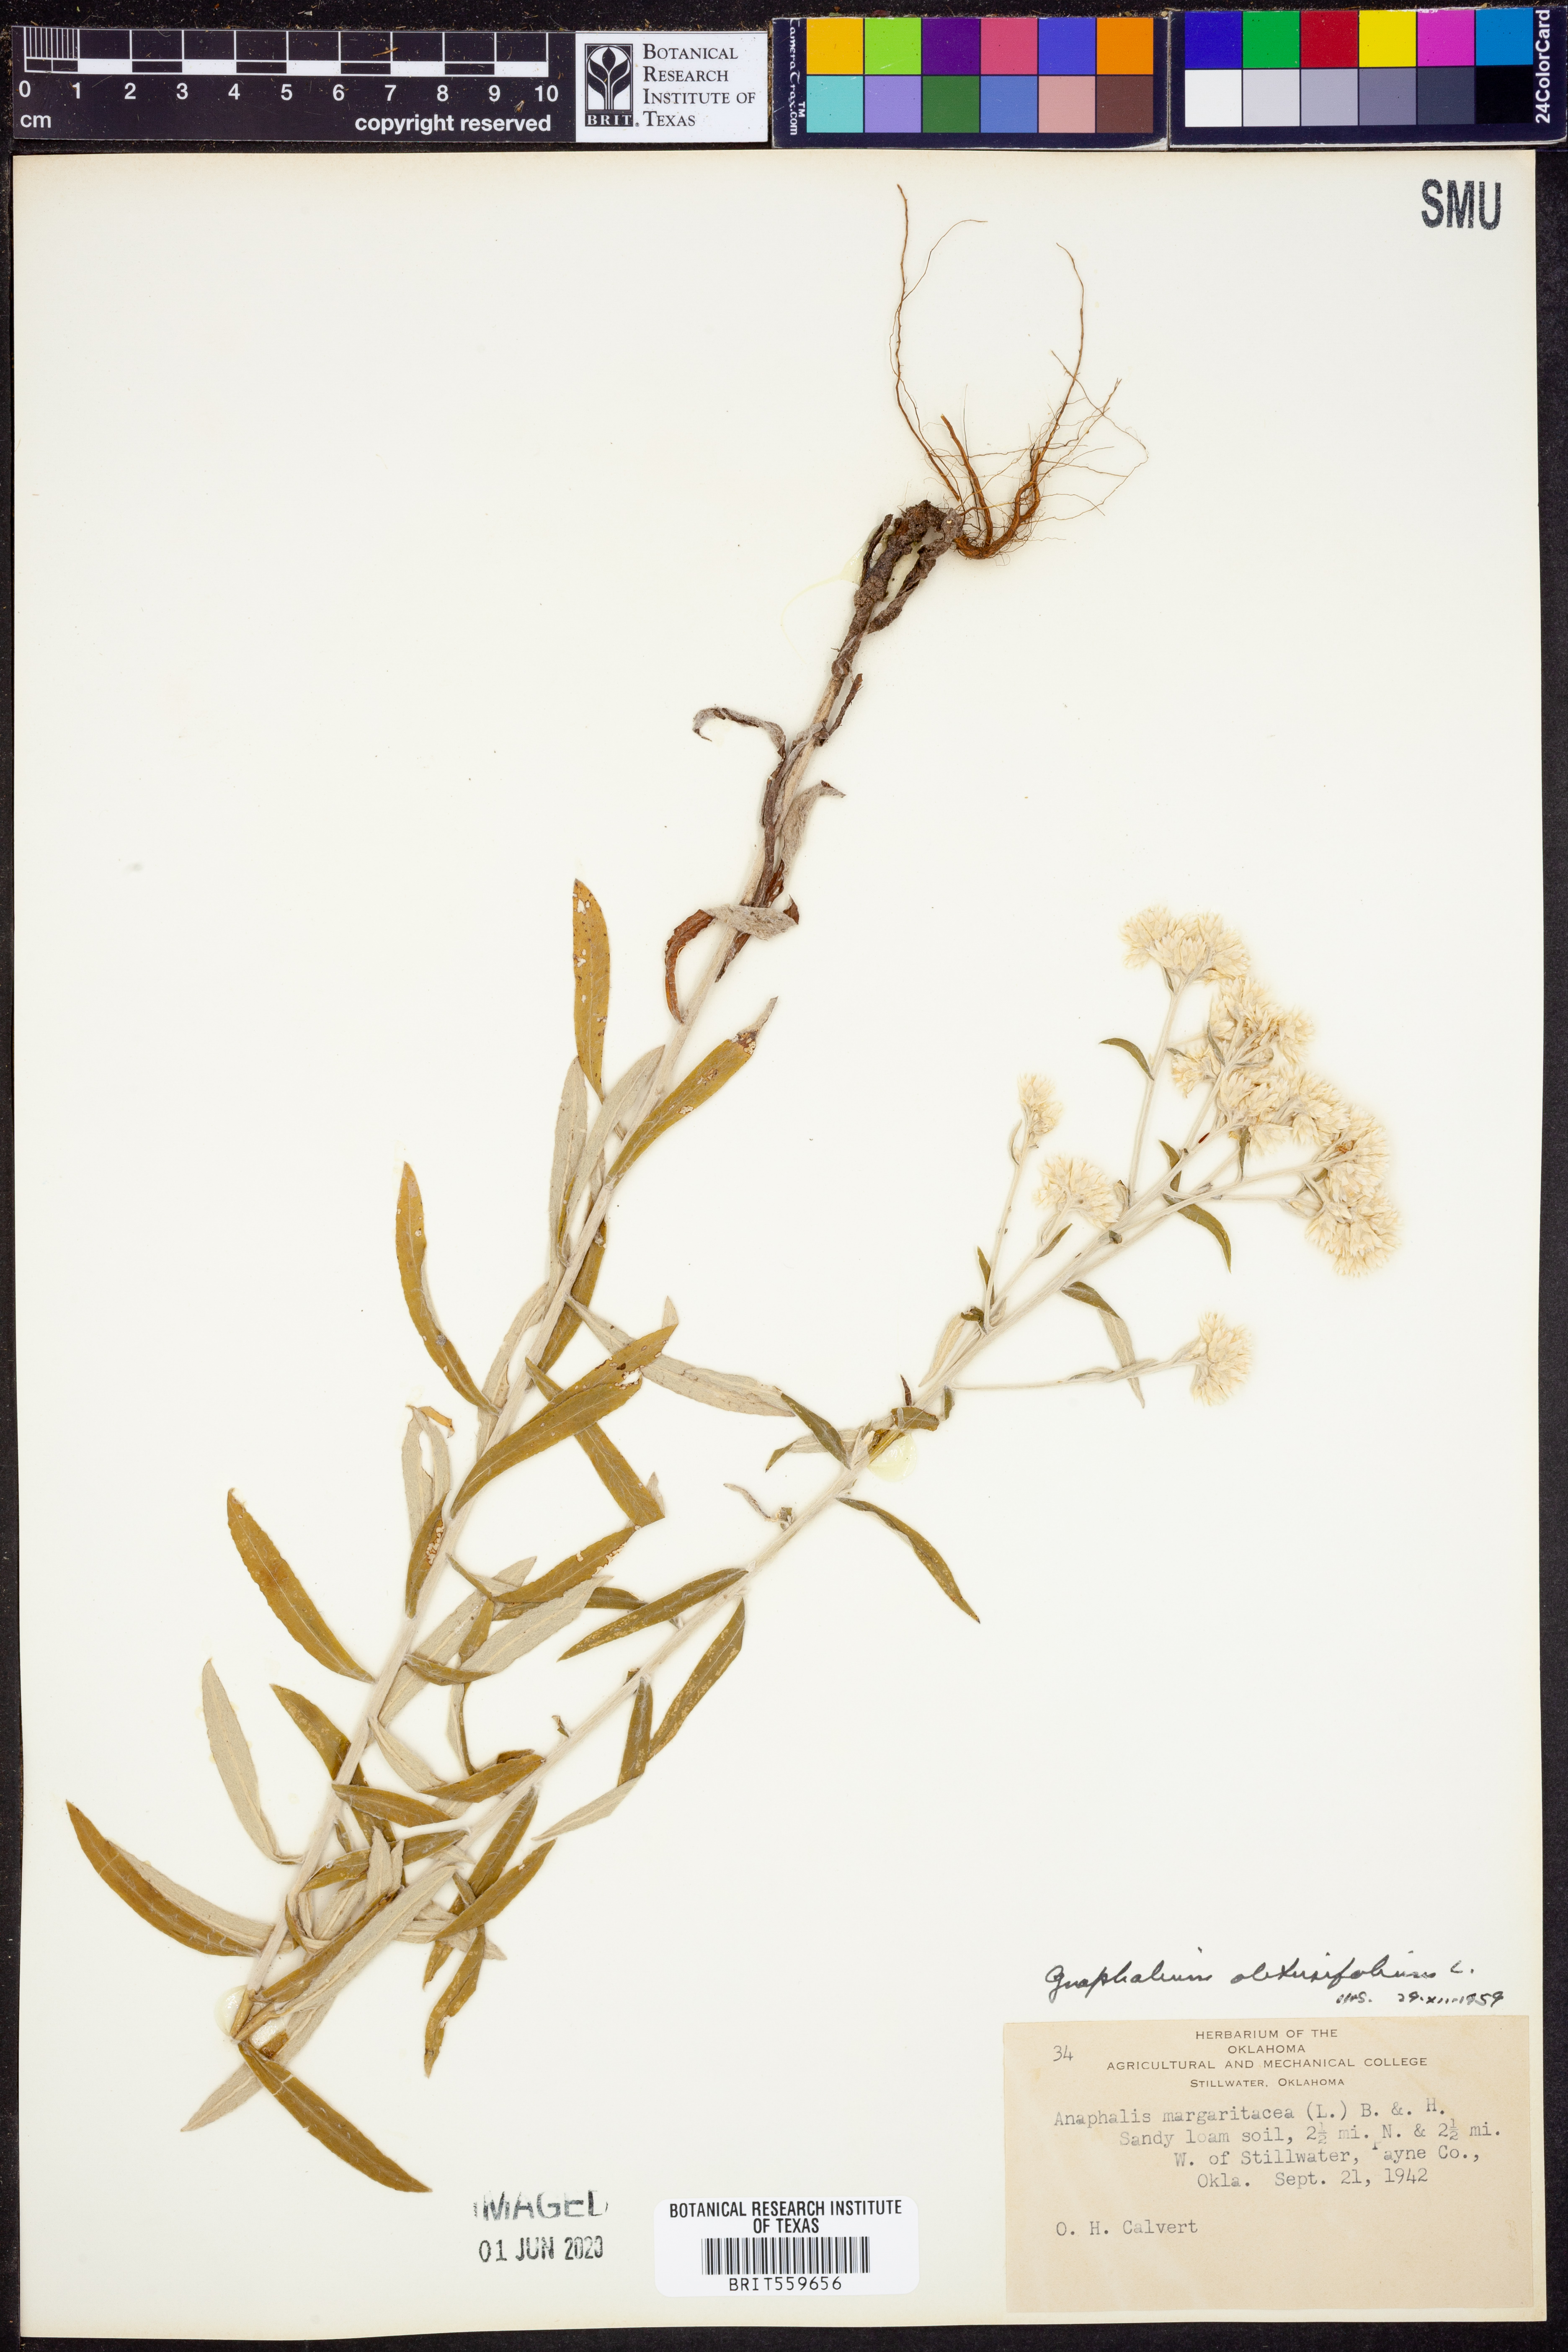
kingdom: Plantae
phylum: Tracheophyta
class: Magnoliopsida
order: Asterales
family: Asteraceae
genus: Pseudognaphalium
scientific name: Pseudognaphalium obtusifolium
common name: Eastern rabbit-tobacco
